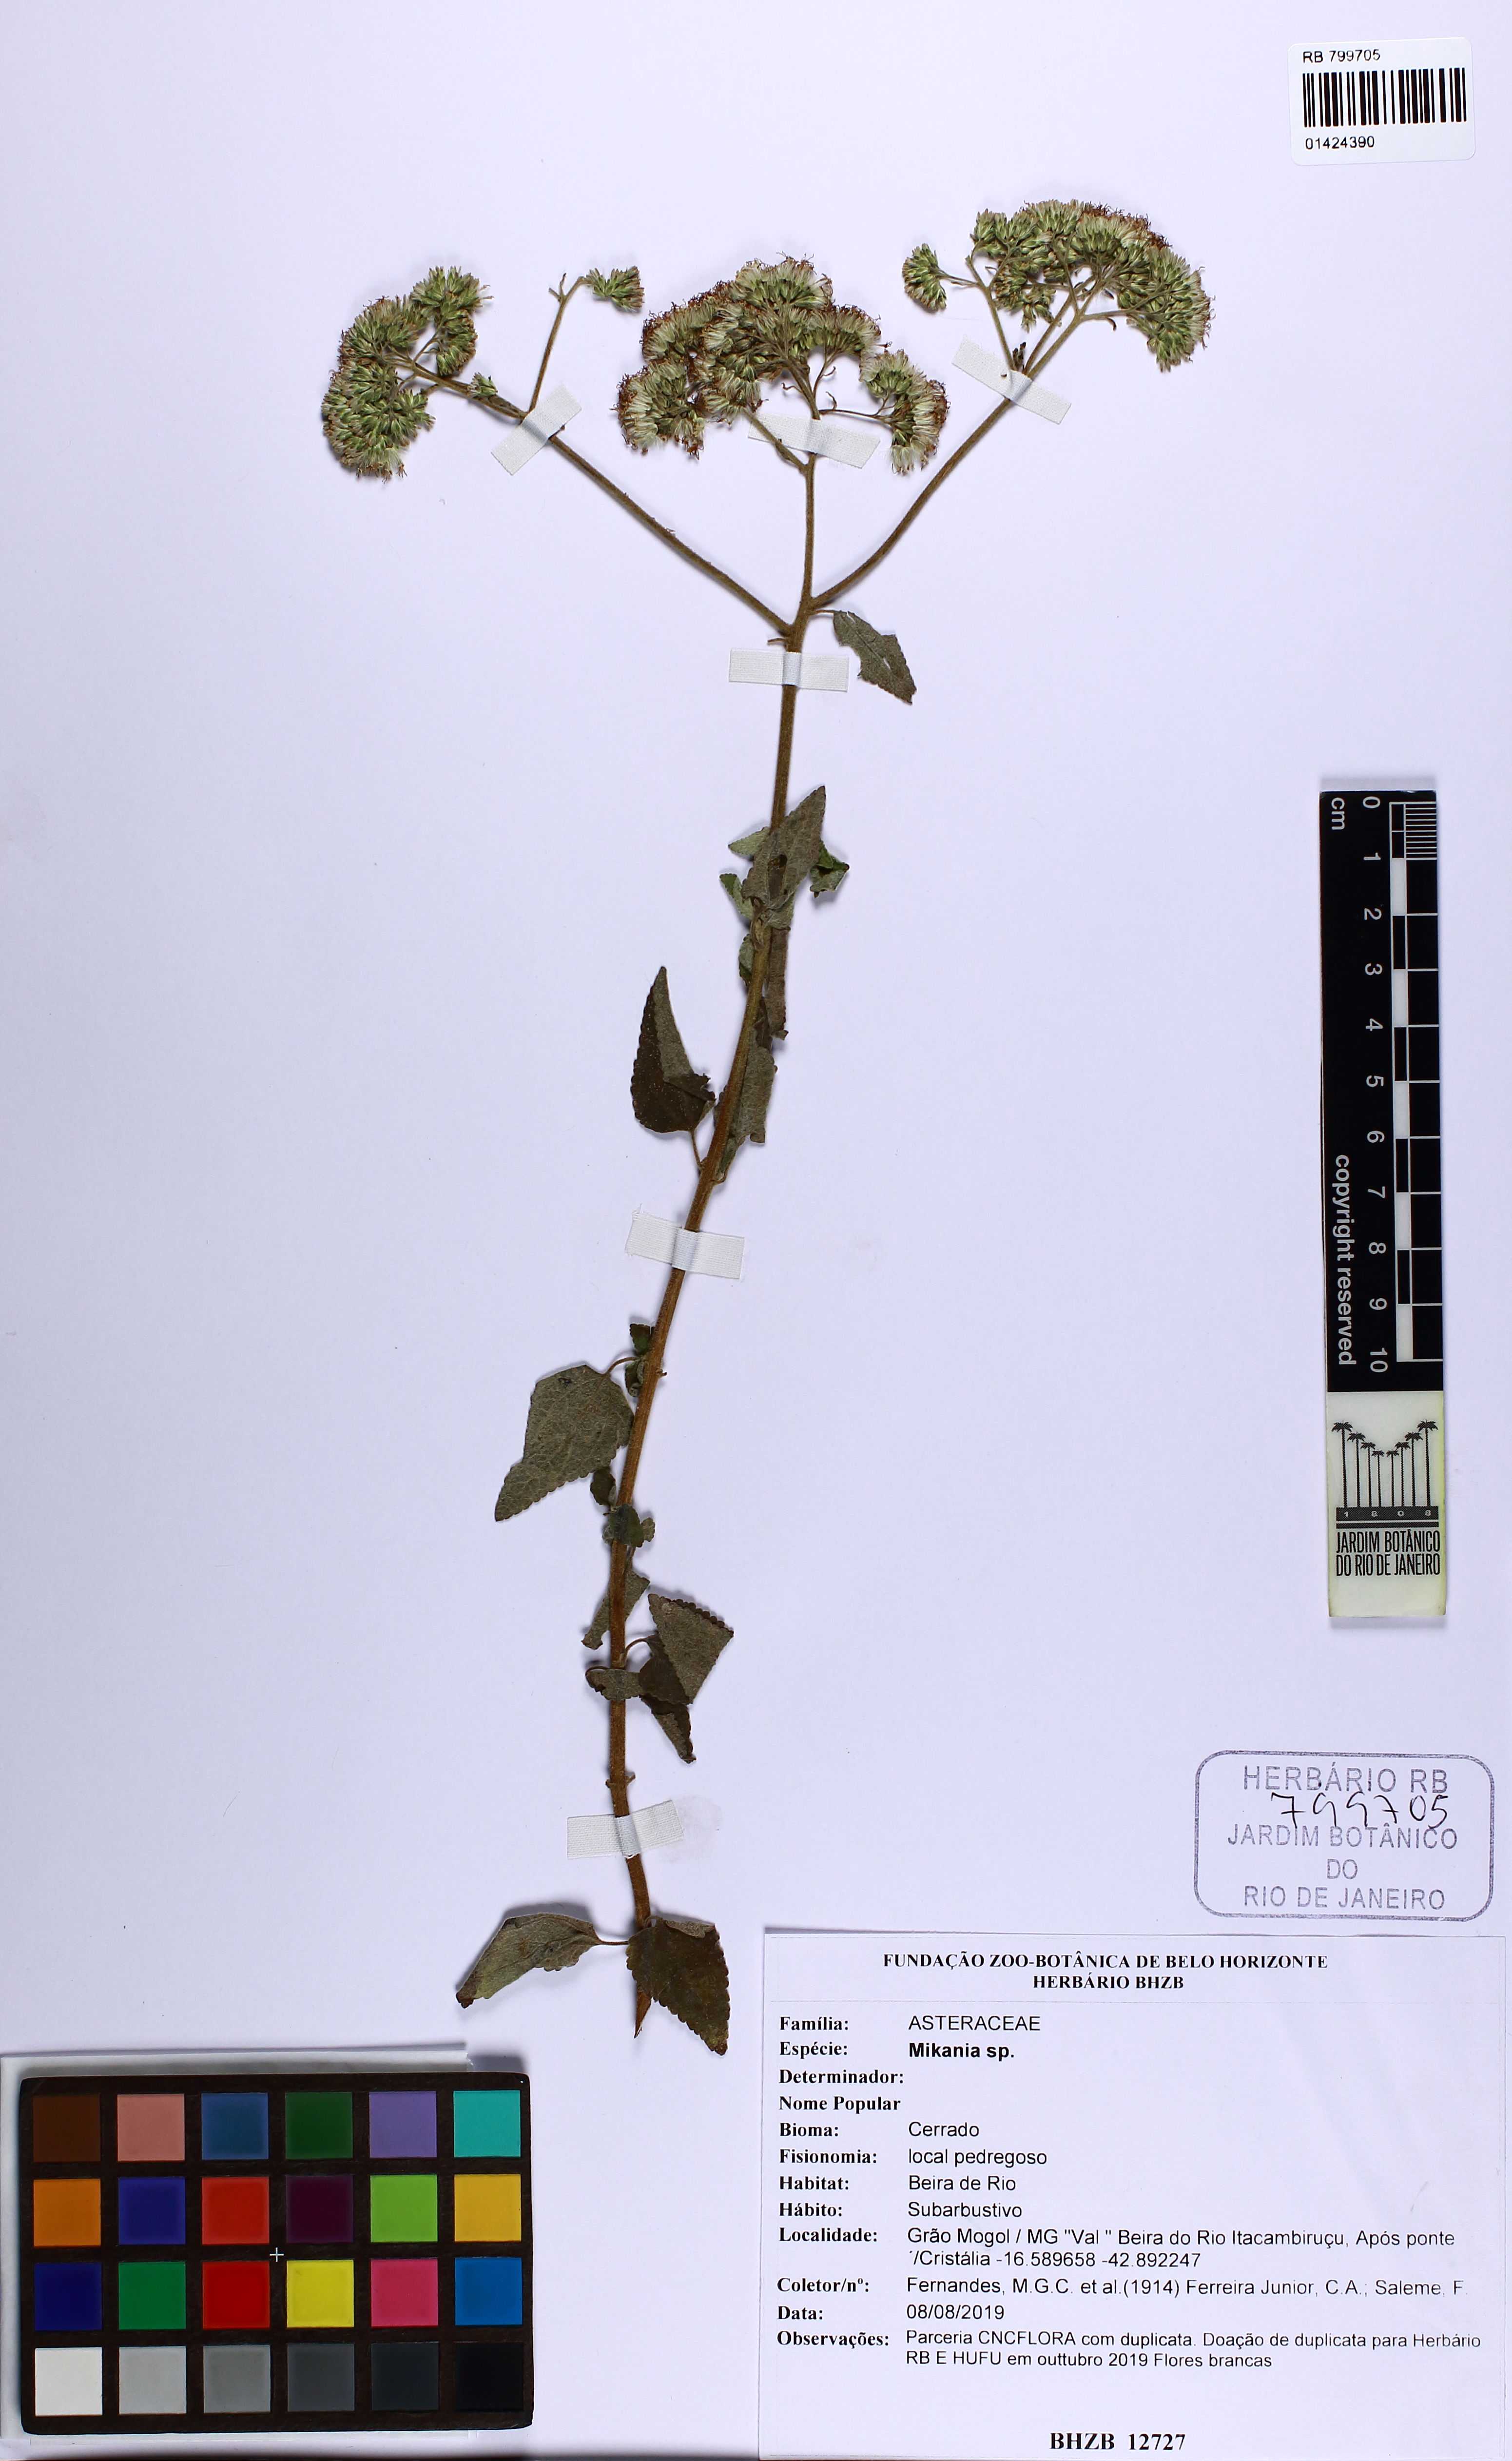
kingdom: Plantae
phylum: Tracheophyta
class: Magnoliopsida
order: Asterales
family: Asteraceae
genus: Mikania
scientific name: Mikania
